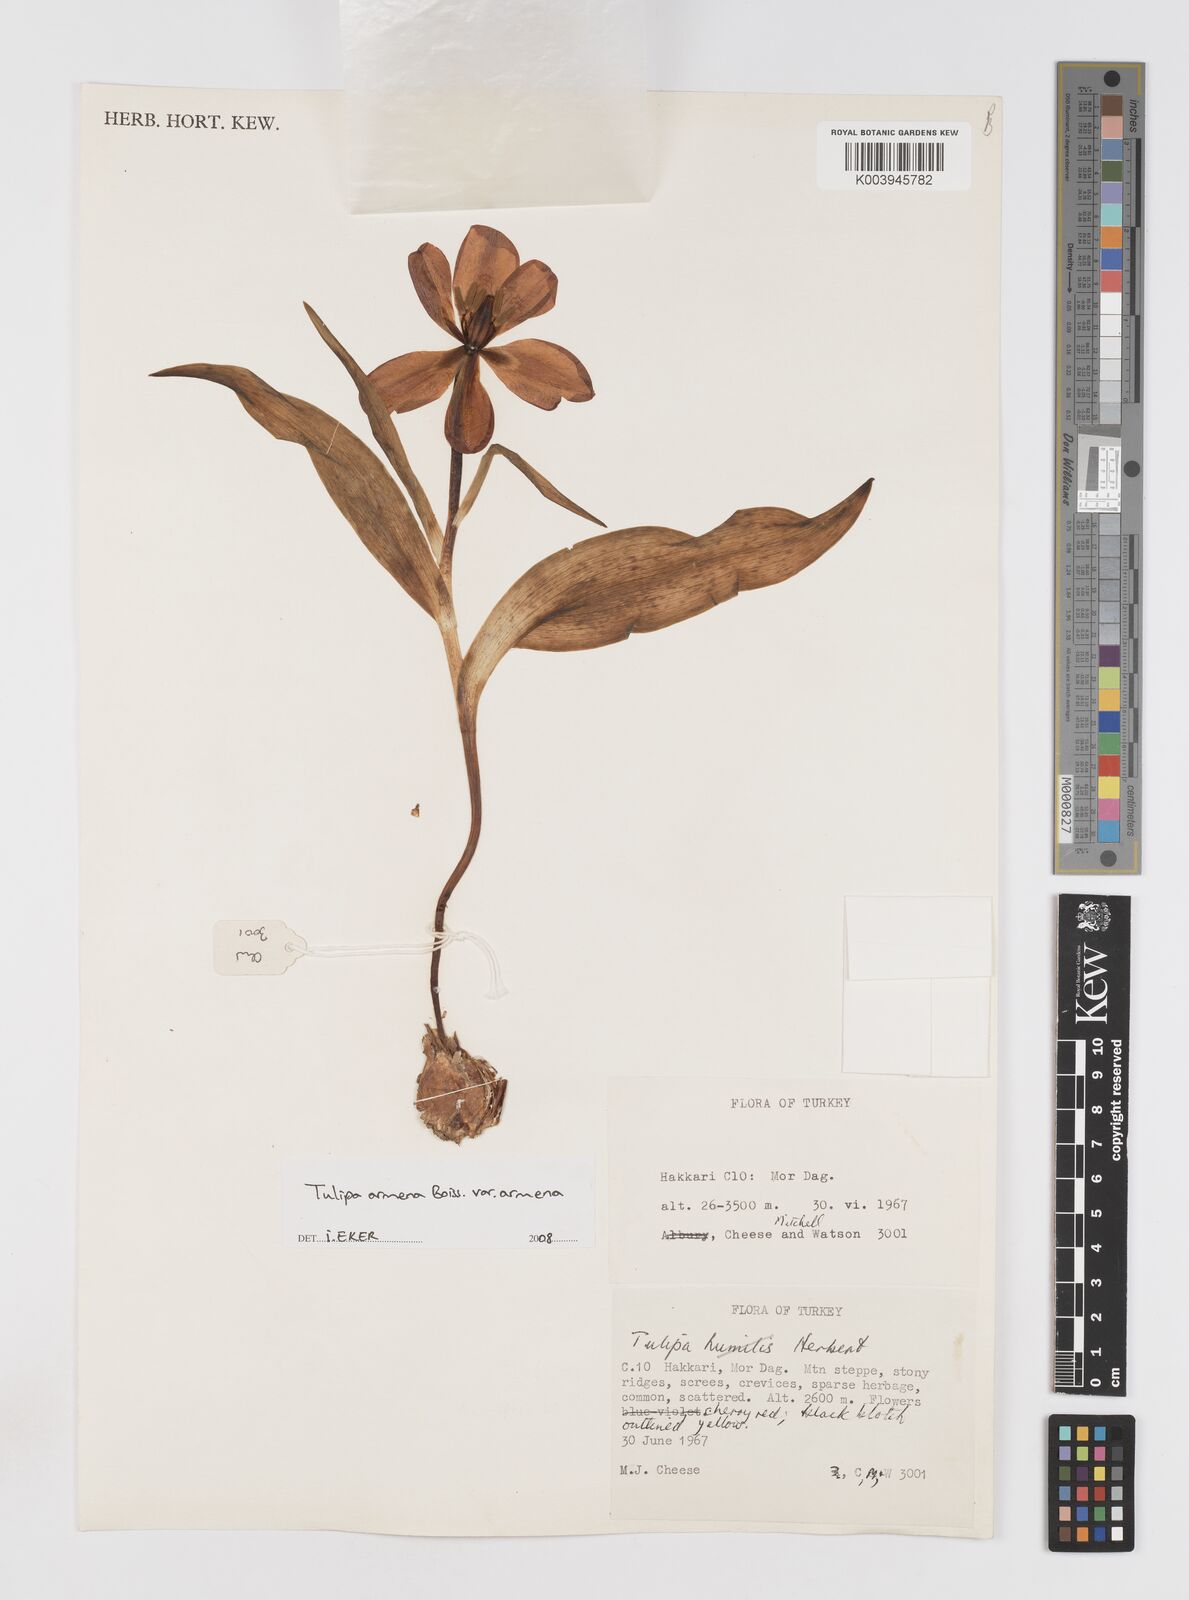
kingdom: Plantae
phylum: Tracheophyta
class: Liliopsida
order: Liliales
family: Liliaceae
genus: Tulipa
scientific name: Tulipa foliosa
